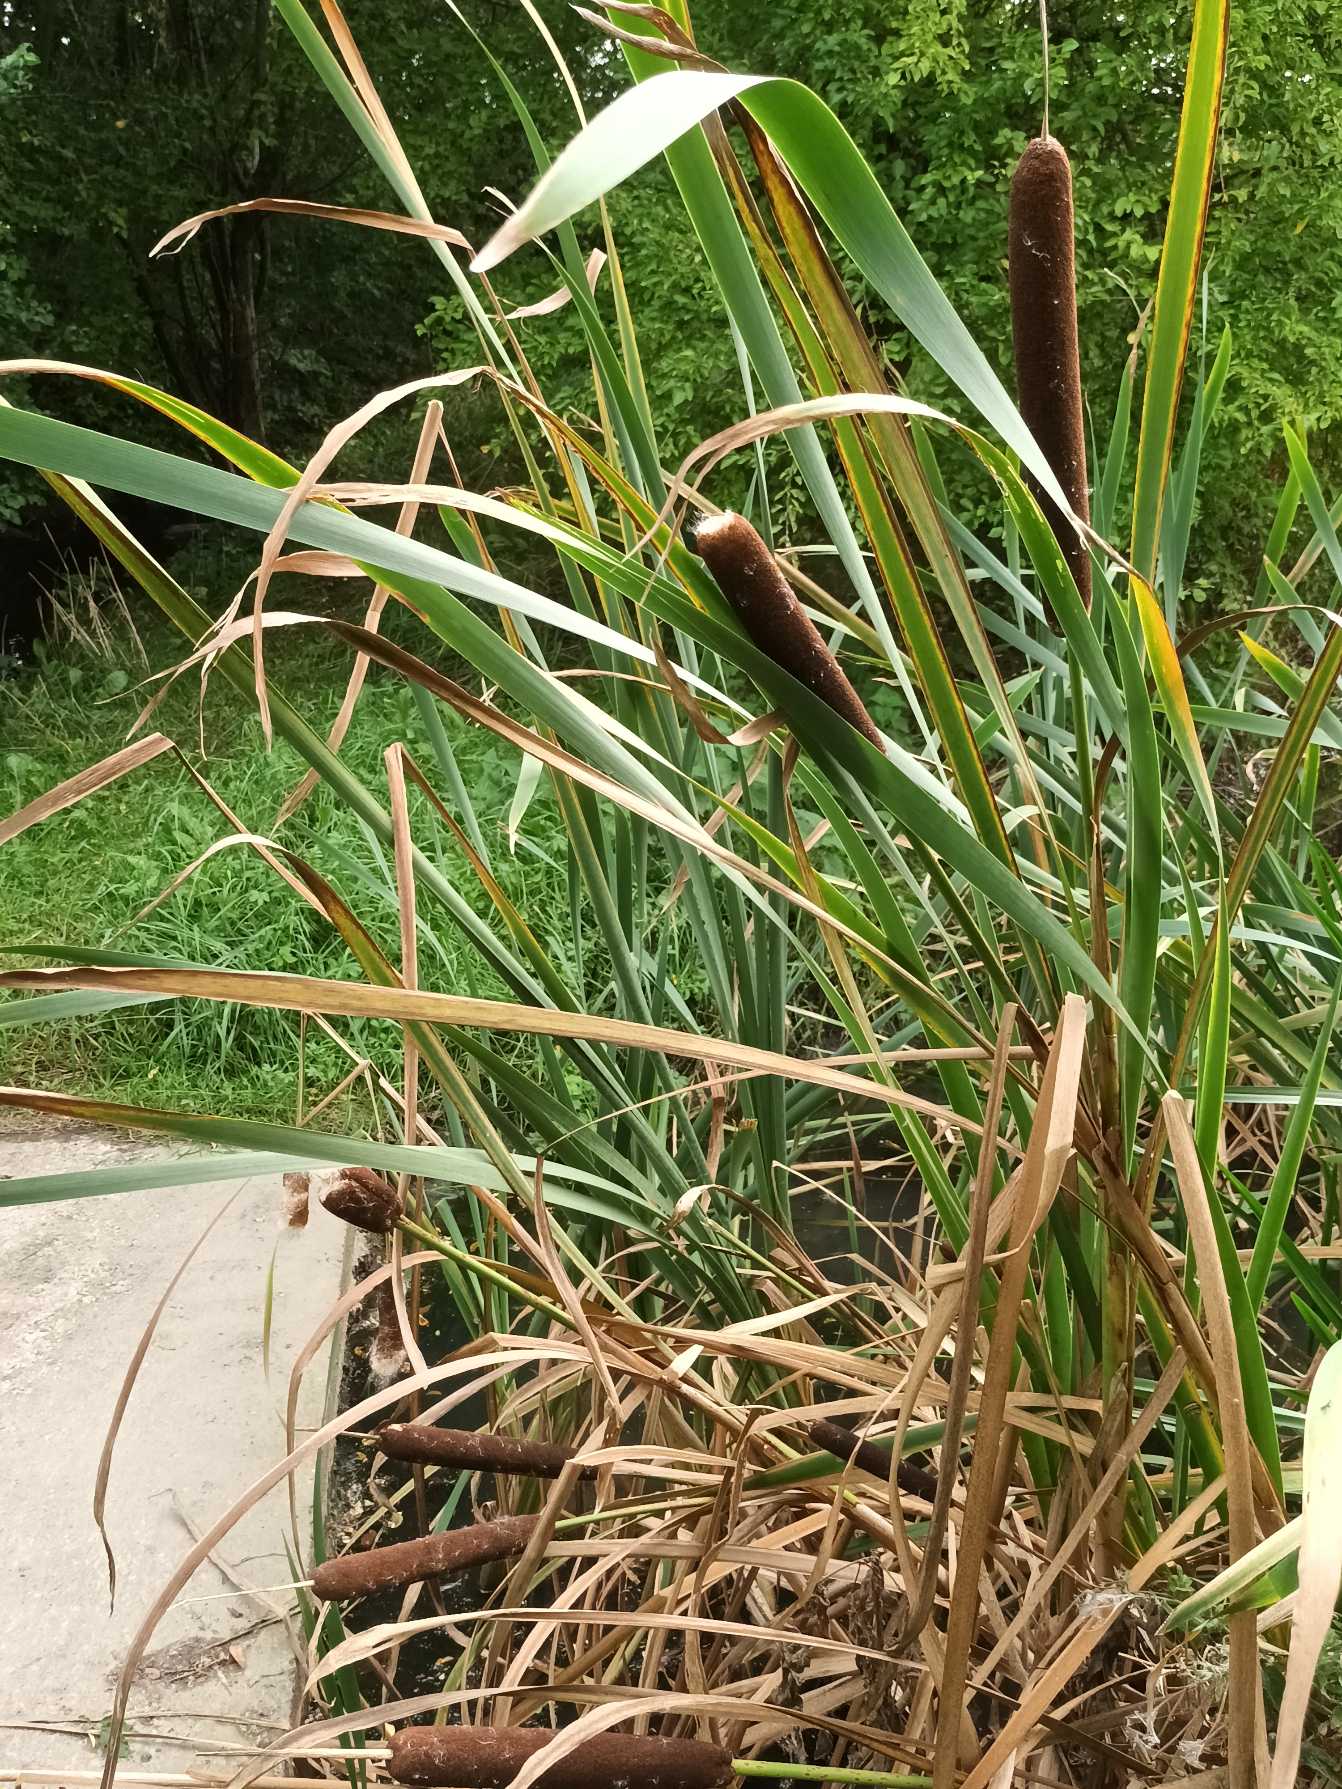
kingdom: Plantae
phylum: Tracheophyta
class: Liliopsida
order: Poales
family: Typhaceae
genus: Typha
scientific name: Typha latifolia
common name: Bredbladet dunhammer
